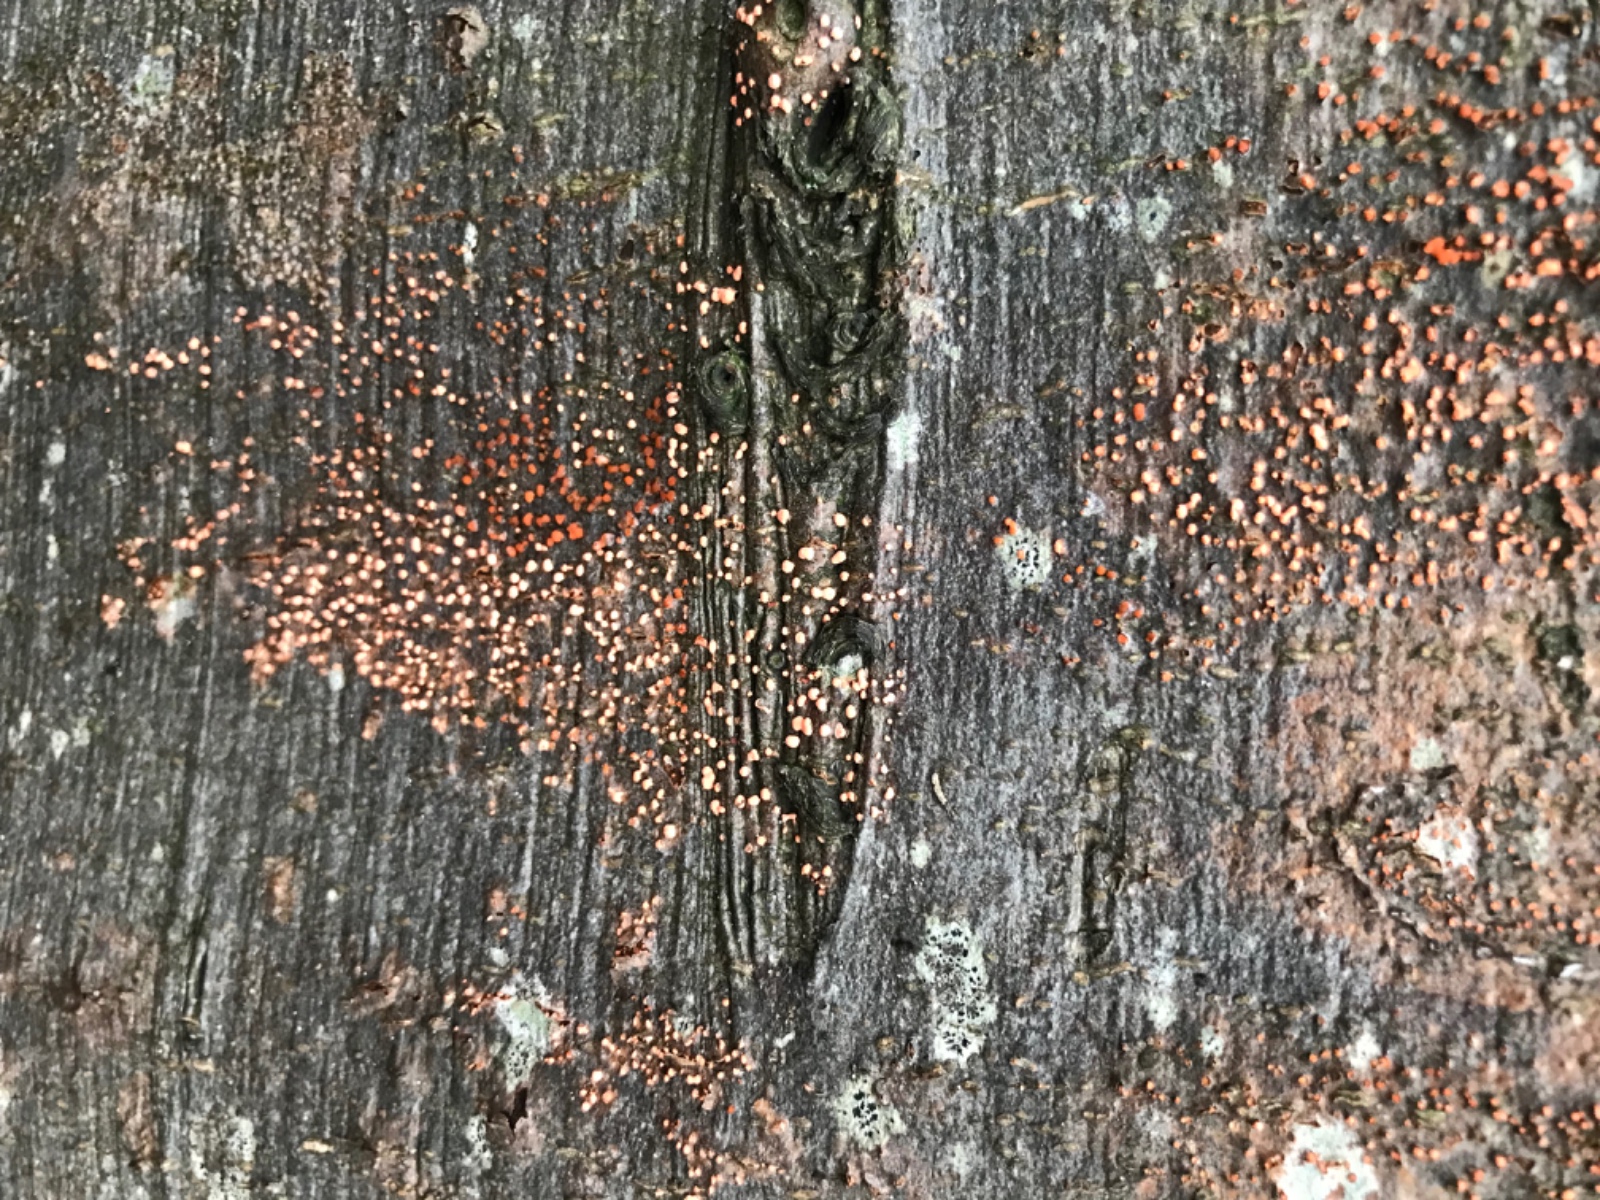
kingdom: Fungi
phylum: Ascomycota
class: Sordariomycetes
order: Hypocreales
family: Nectriaceae
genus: Nectria
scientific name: Nectria cinnabarina
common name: almindelig cinnobersvamp
